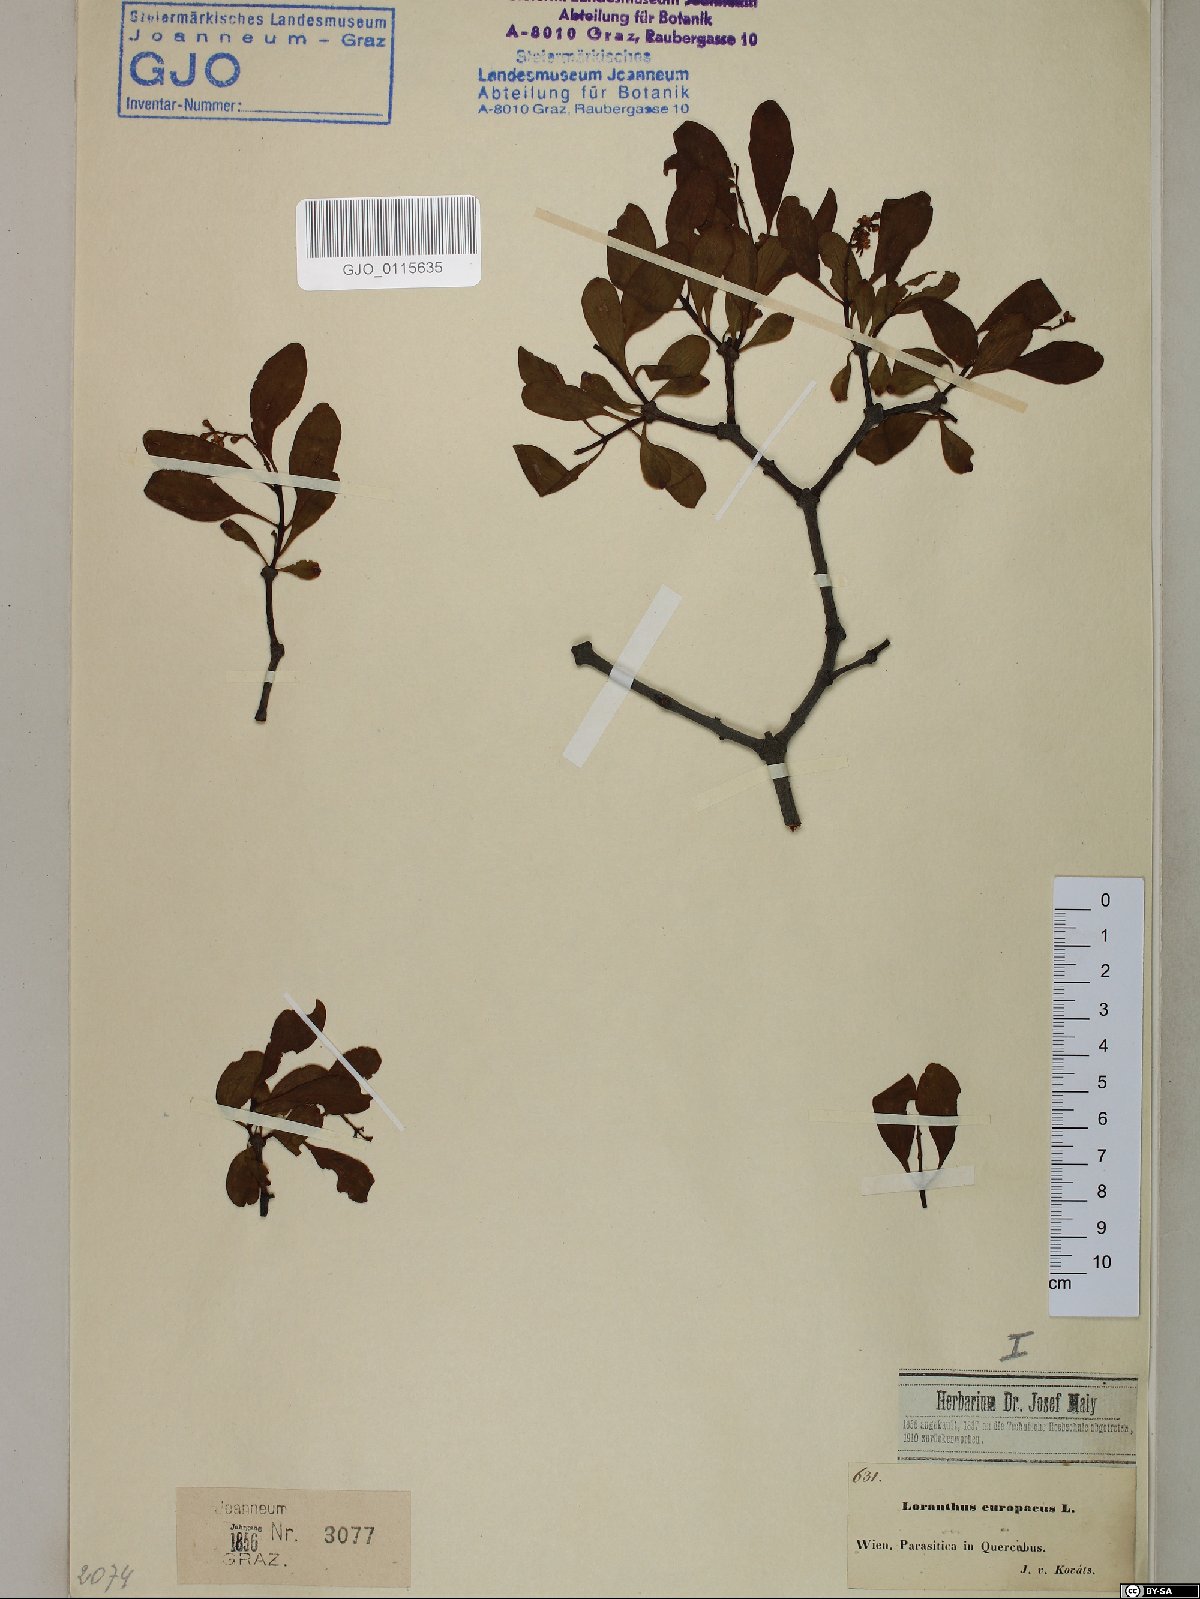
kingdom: Plantae
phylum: Tracheophyta
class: Magnoliopsida
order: Santalales
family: Loranthaceae
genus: Loranthus
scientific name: Loranthus europaeus
